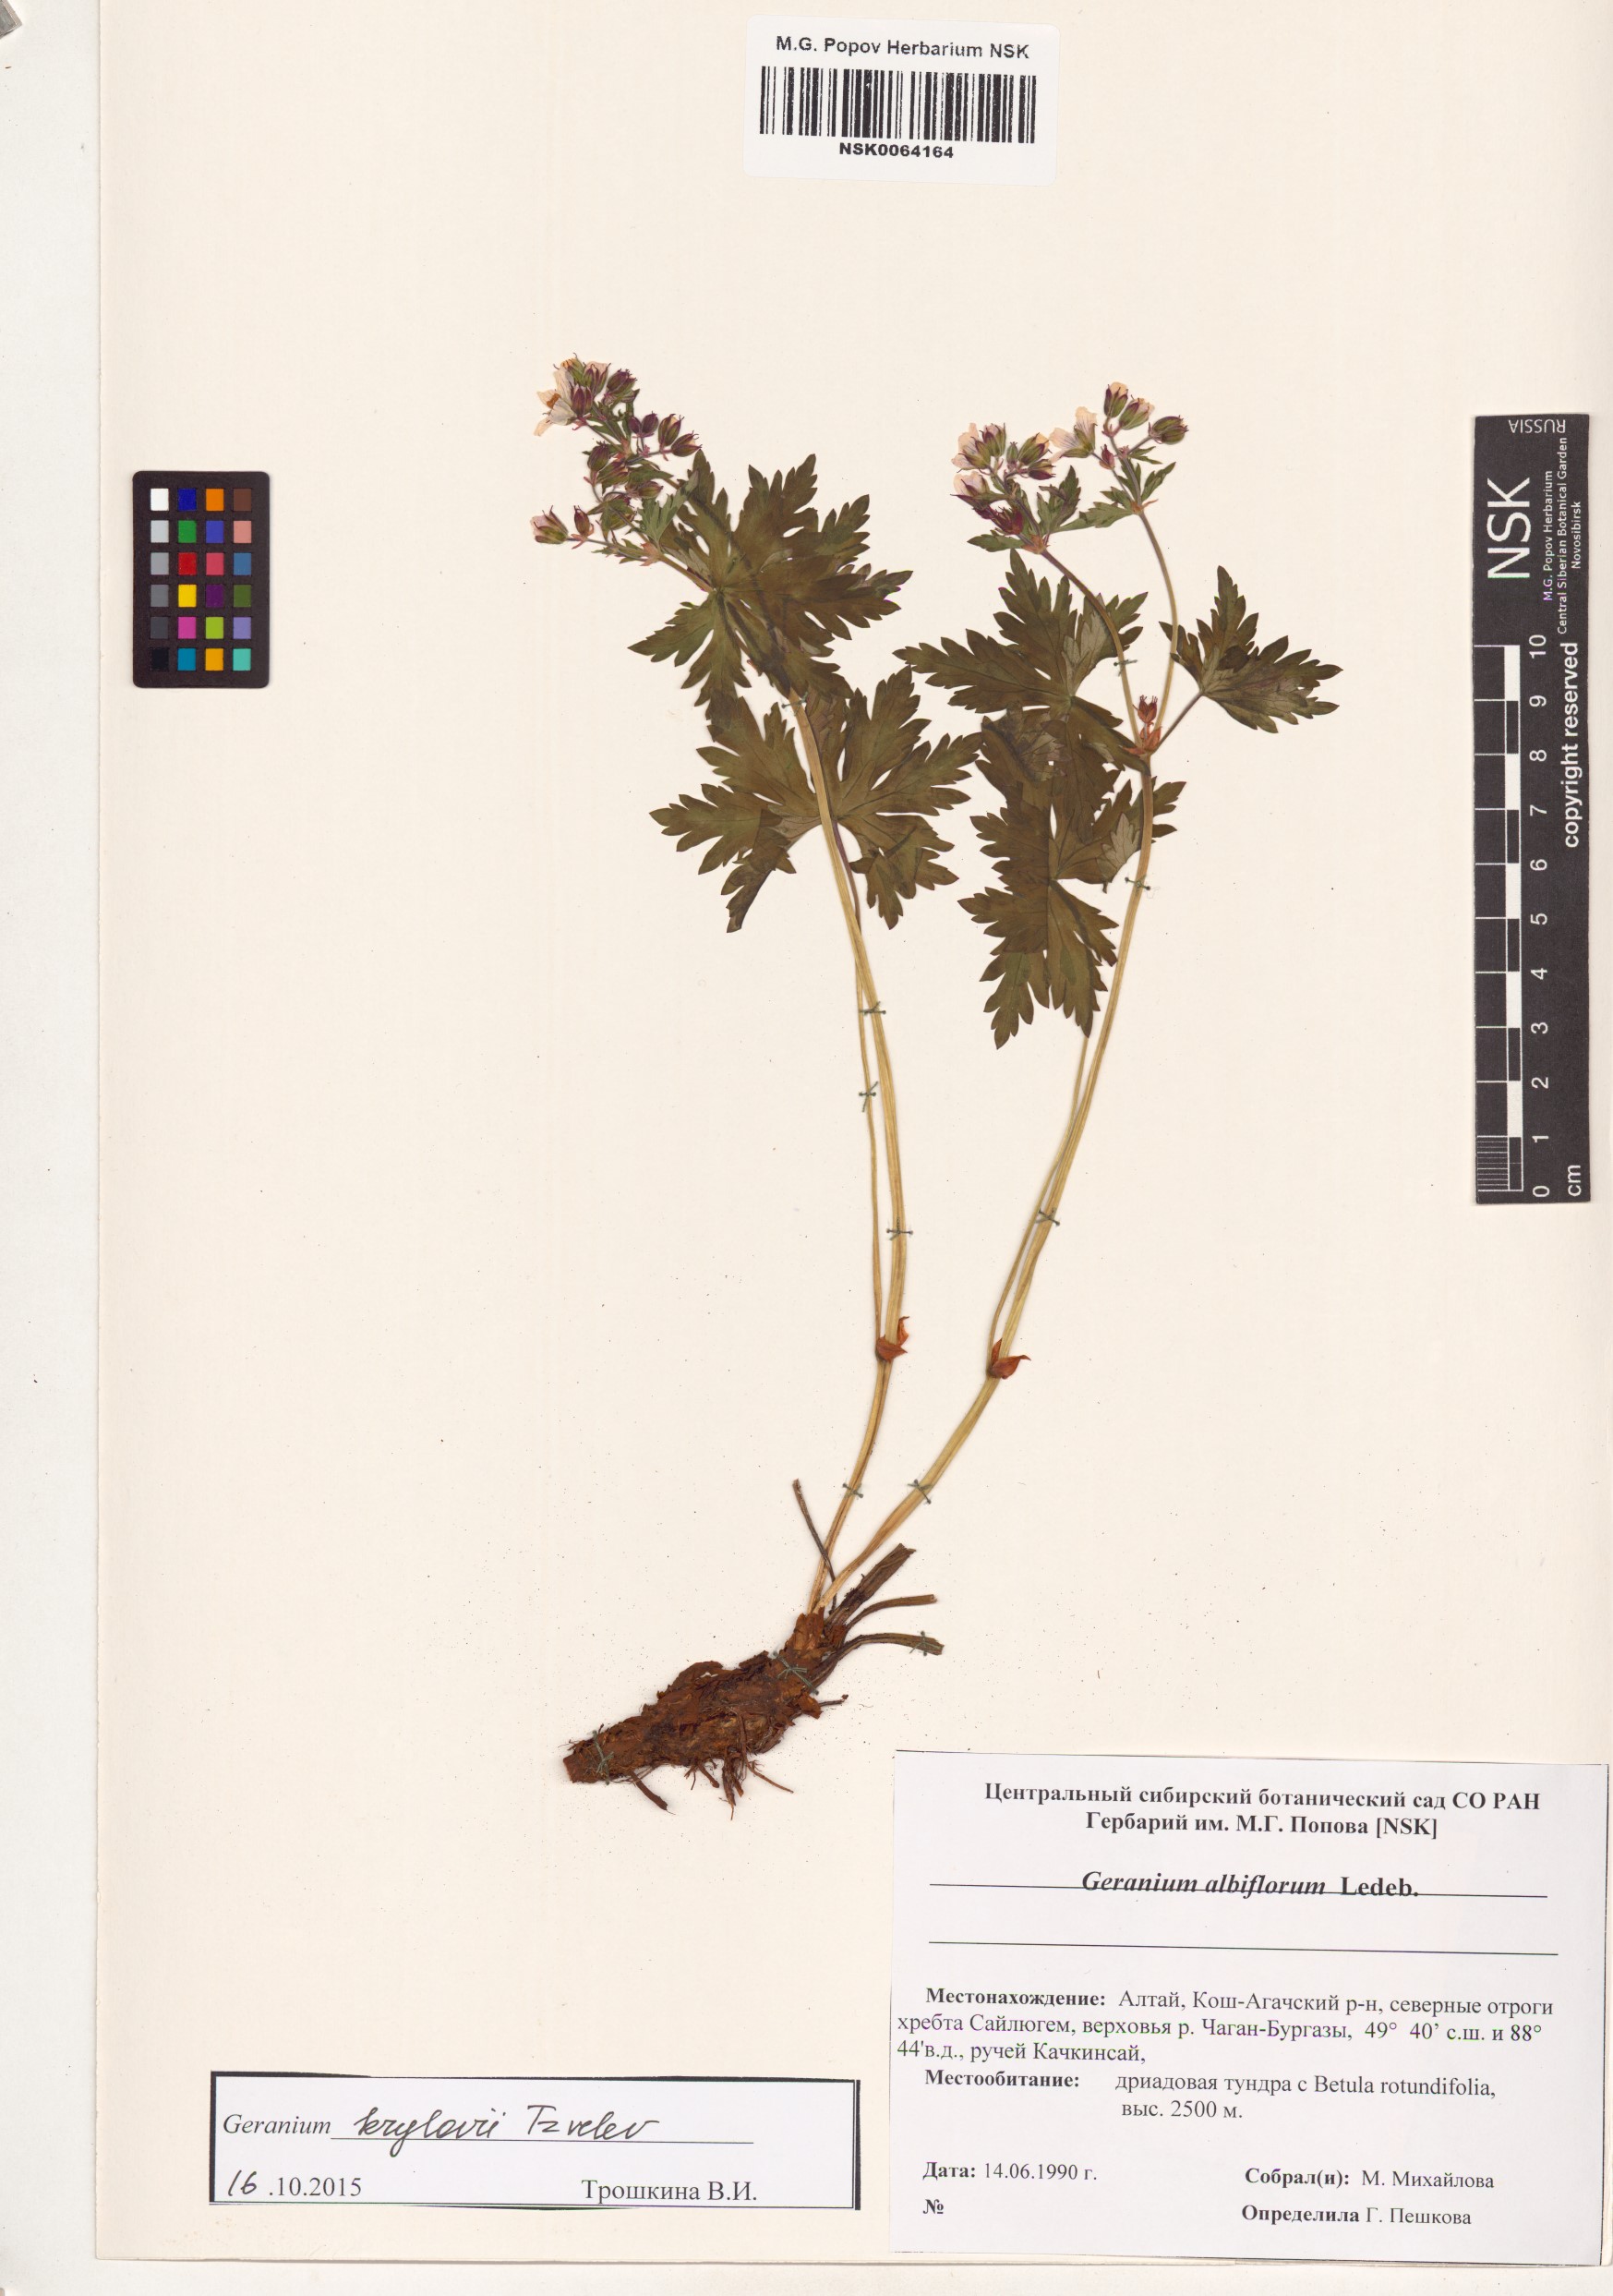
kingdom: Plantae
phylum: Tracheophyta
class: Magnoliopsida
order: Geraniales
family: Geraniaceae
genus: Geranium
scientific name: Geranium sylvaticum
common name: Wood crane's-bill
